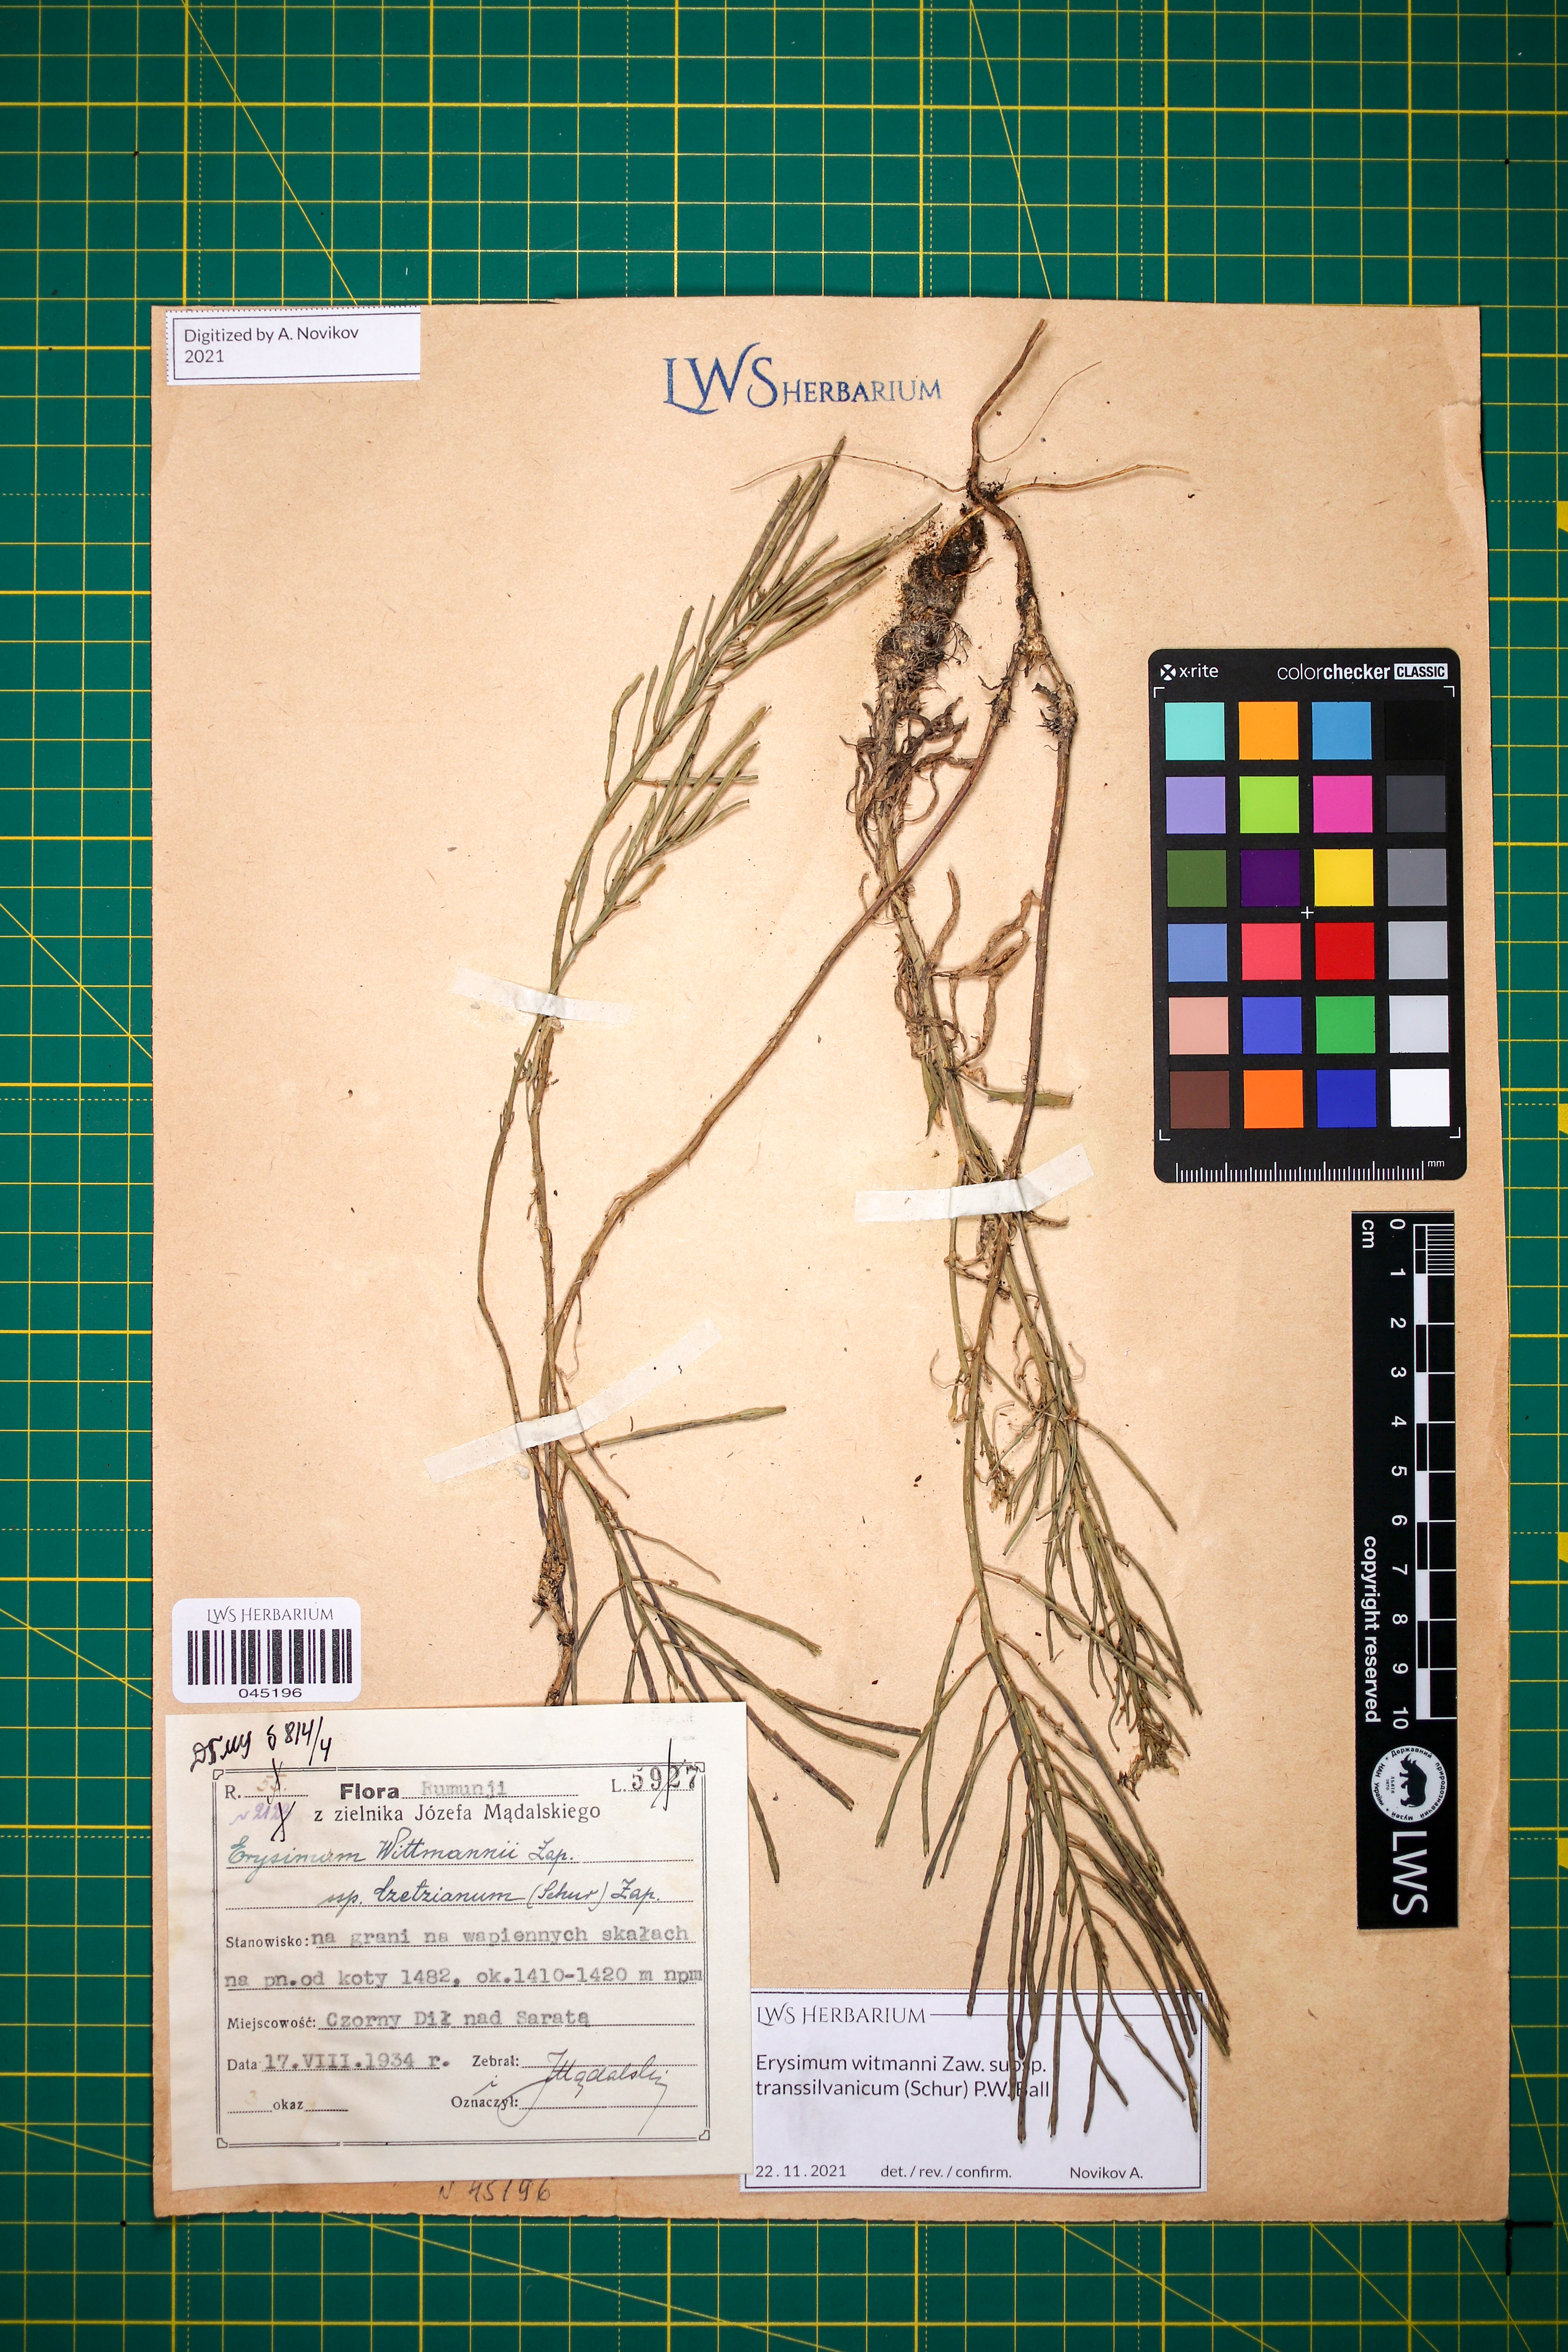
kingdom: Plantae
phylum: Tracheophyta
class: Magnoliopsida
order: Brassicales
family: Brassicaceae
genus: Erysimum
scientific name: Erysimum transsilvanicum
